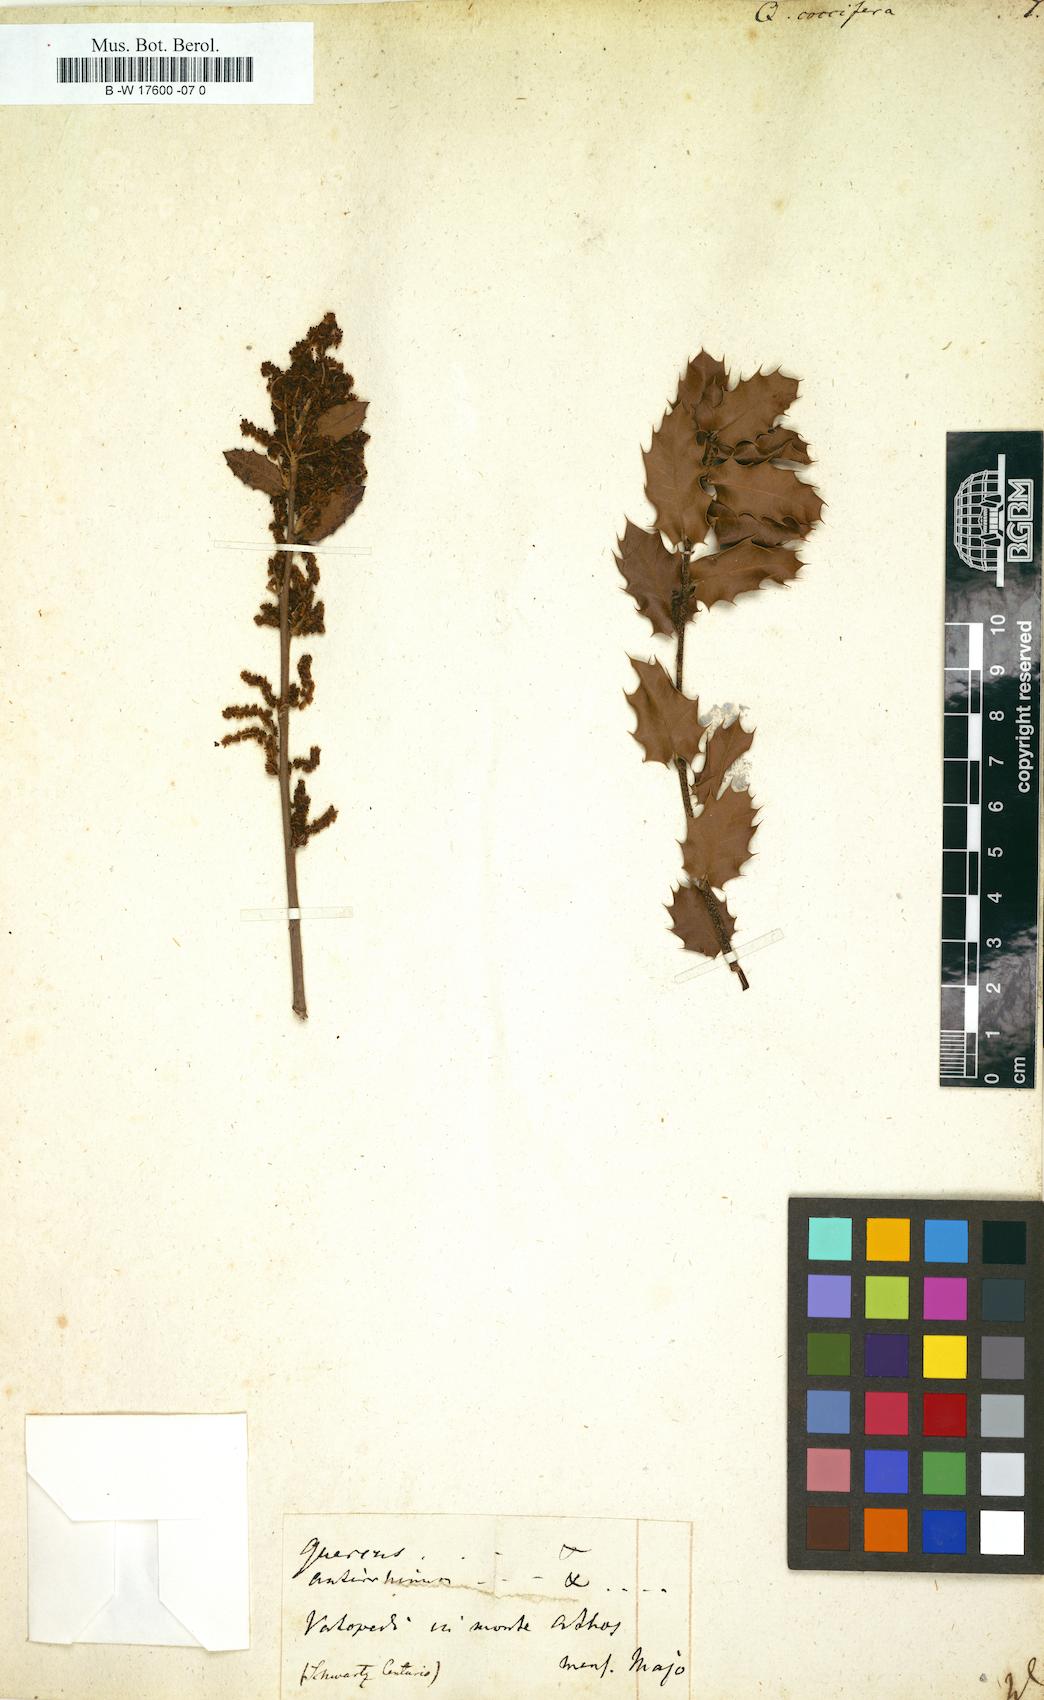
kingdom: Plantae
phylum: Tracheophyta
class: Magnoliopsida
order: Fagales
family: Fagaceae
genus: Quercus
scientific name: Quercus coccifera
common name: Kermes oak
